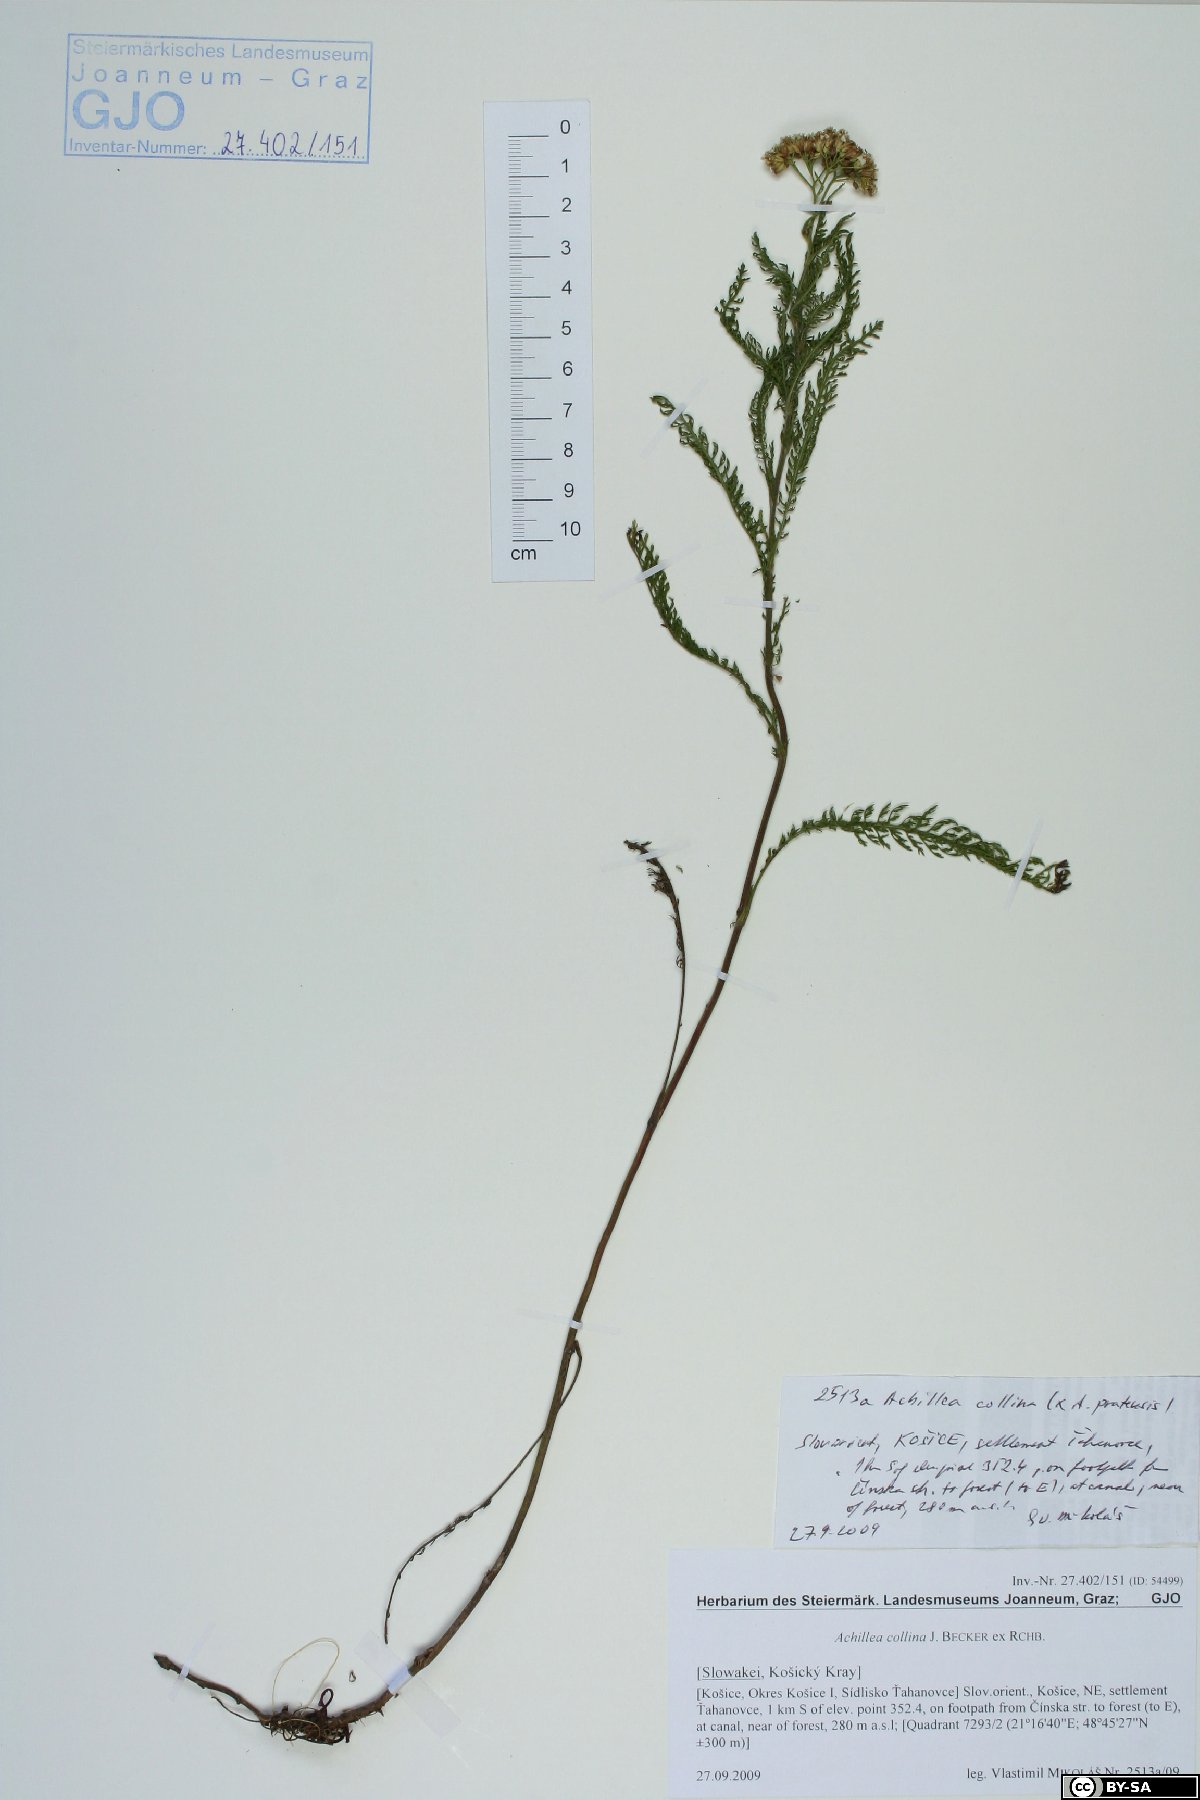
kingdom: Plantae
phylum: Tracheophyta
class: Magnoliopsida
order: Asterales
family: Asteraceae
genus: Achillea
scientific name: Achillea collina
